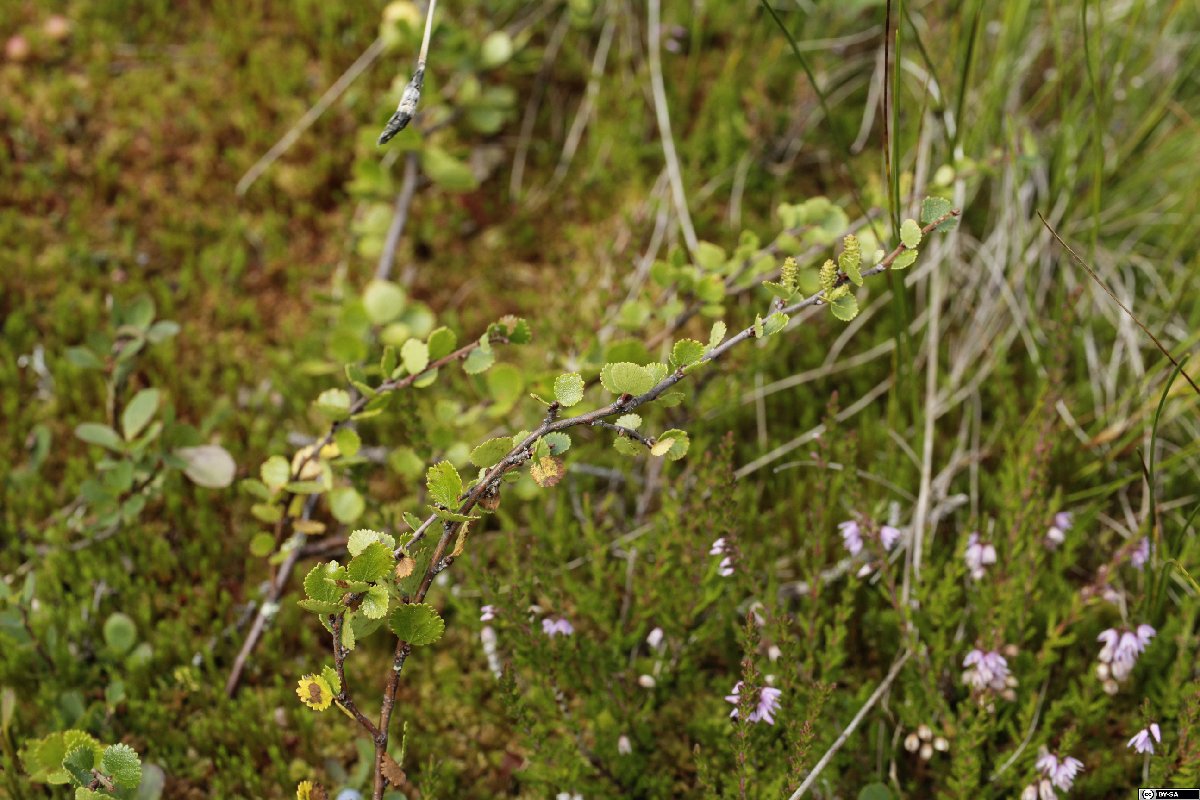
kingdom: Plantae
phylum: Tracheophyta
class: Magnoliopsida
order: Fagales
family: Betulaceae
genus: Betula
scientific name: Betula nana
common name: Arctic dwarf birch
